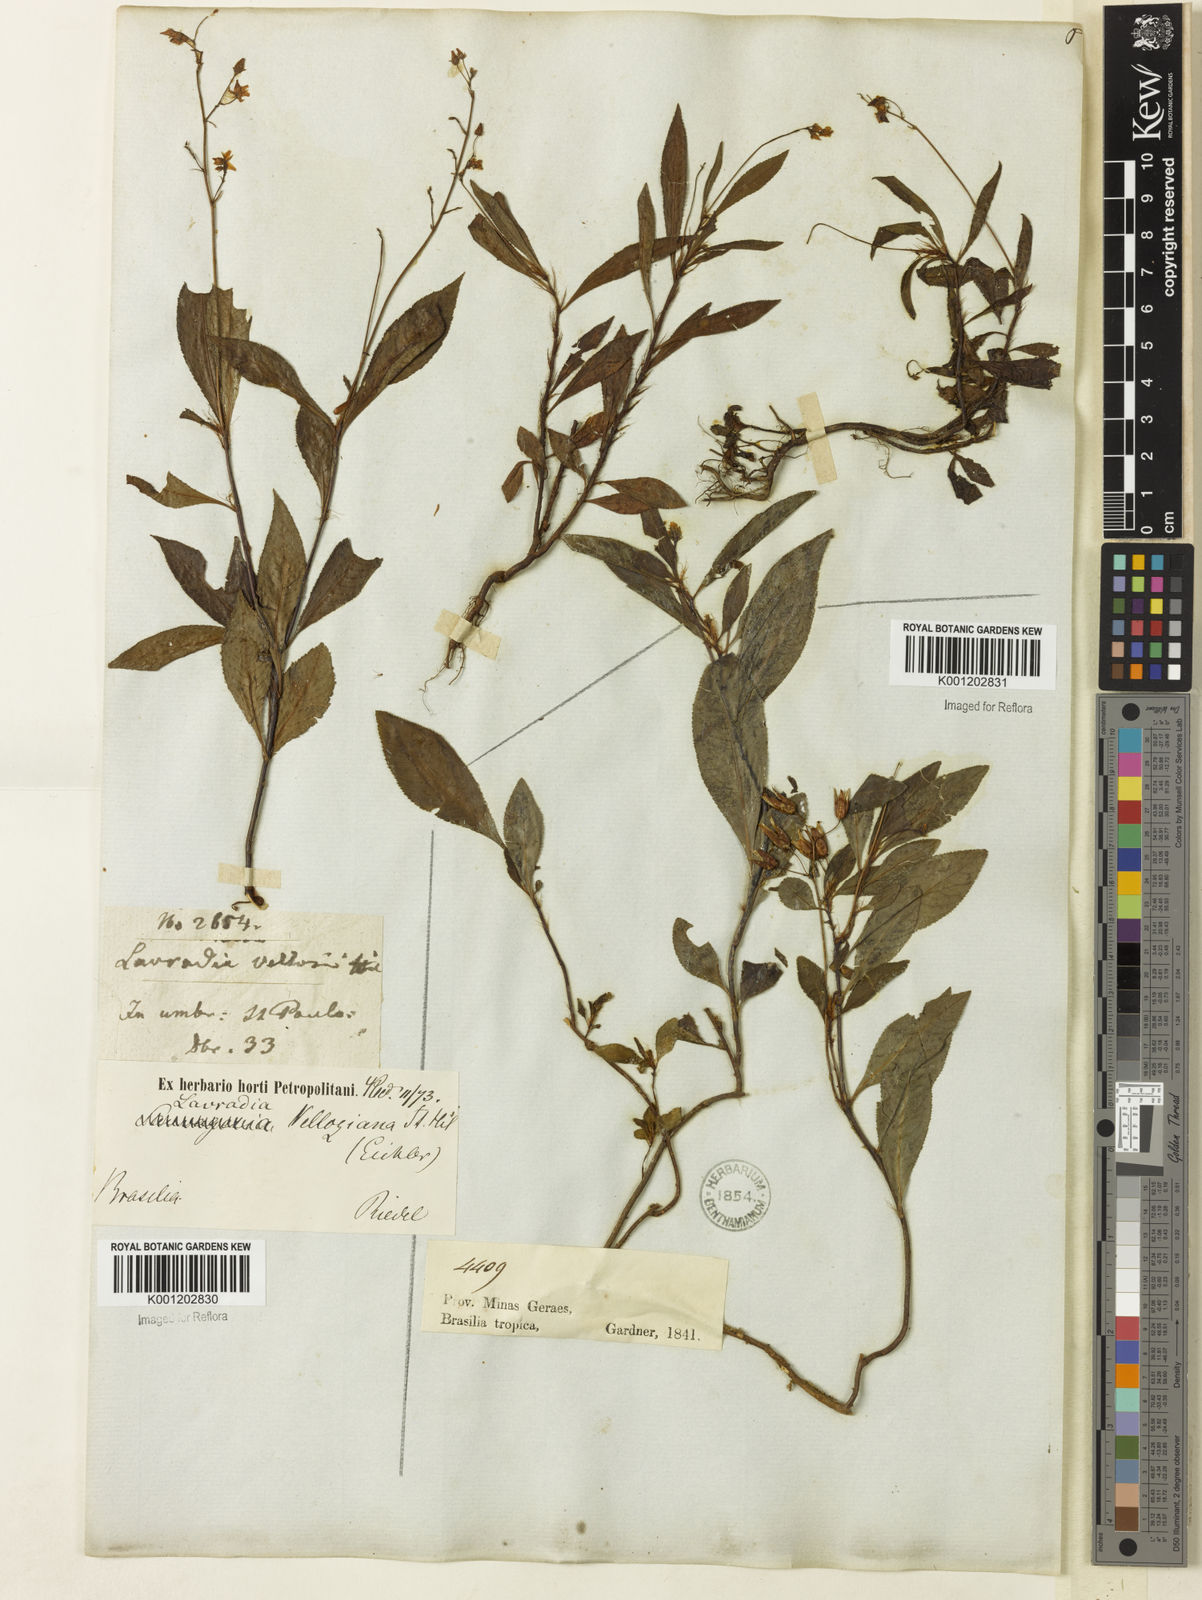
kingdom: Plantae
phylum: Tracheophyta
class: Magnoliopsida
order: Malpighiales
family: Ochnaceae
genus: Sauvagesia
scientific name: Sauvagesia
